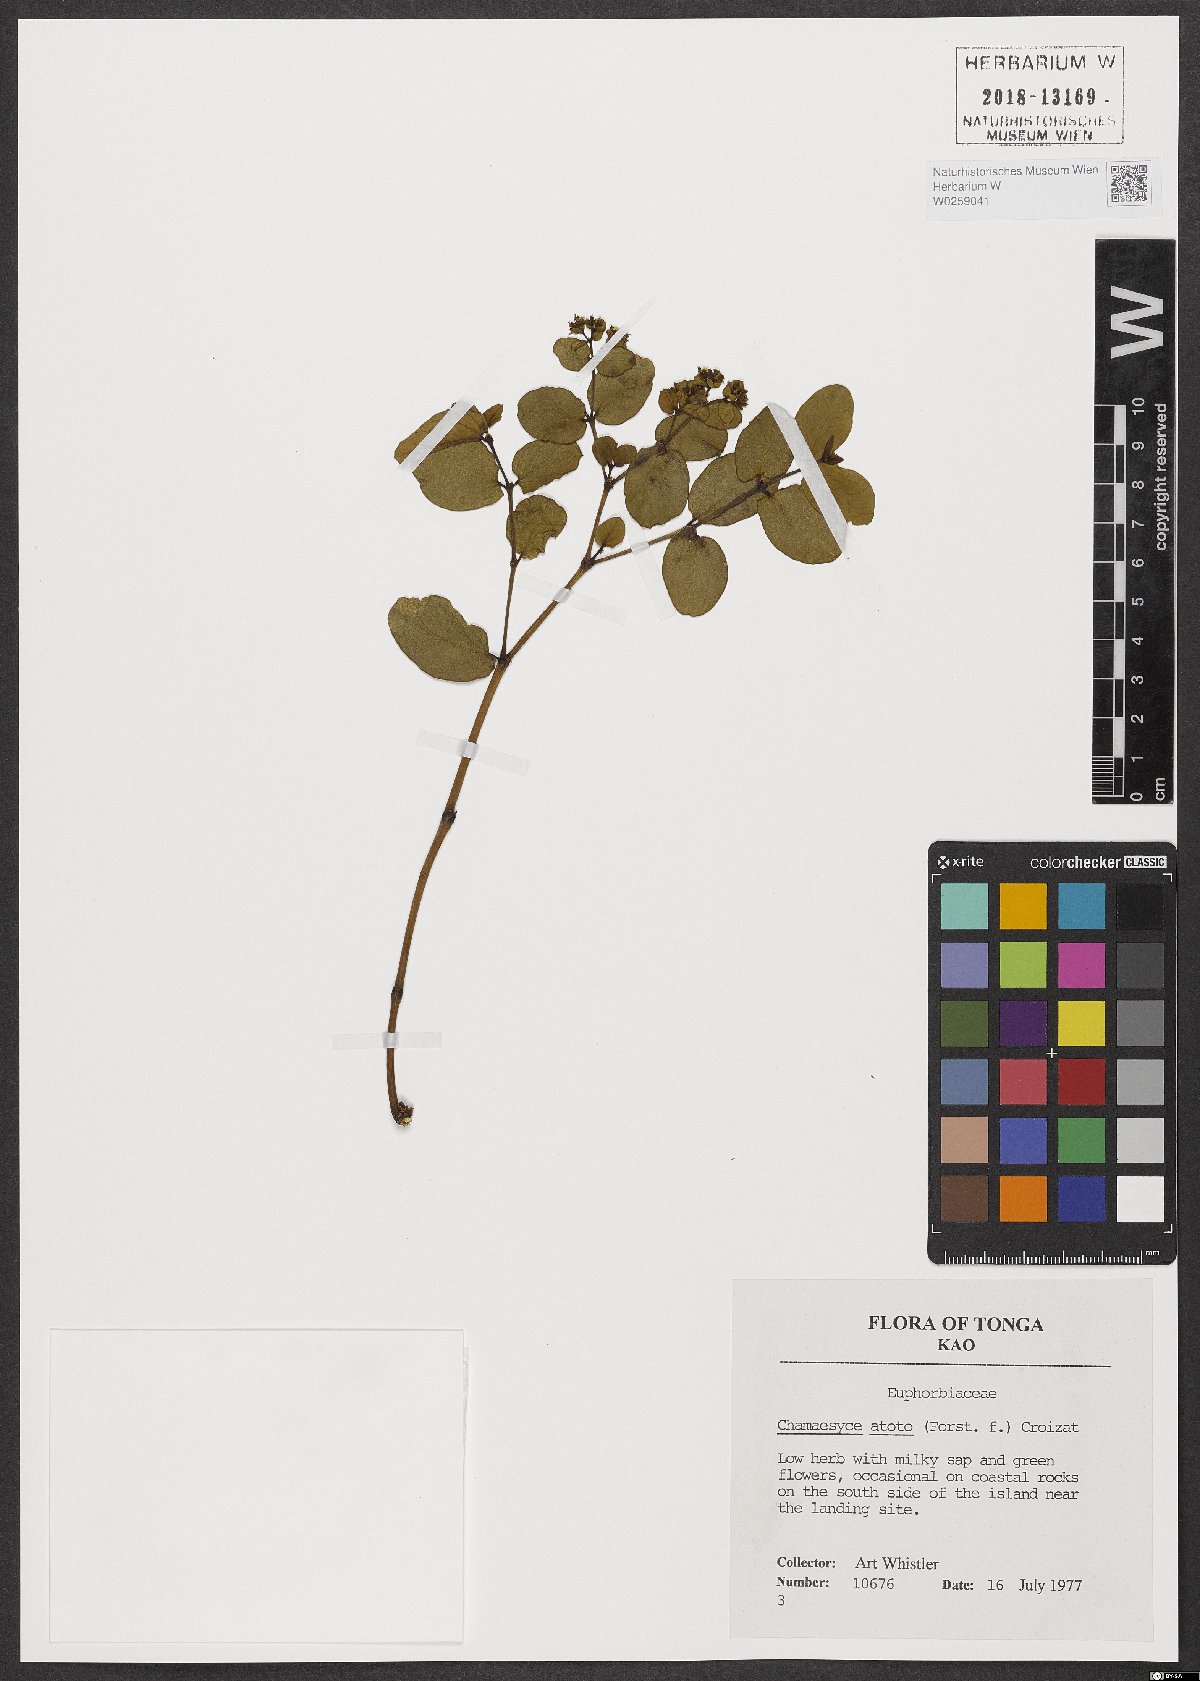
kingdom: Plantae
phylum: Tracheophyta
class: Magnoliopsida
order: Malpighiales
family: Euphorbiaceae
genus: Euphorbia
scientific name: Euphorbia atoto
